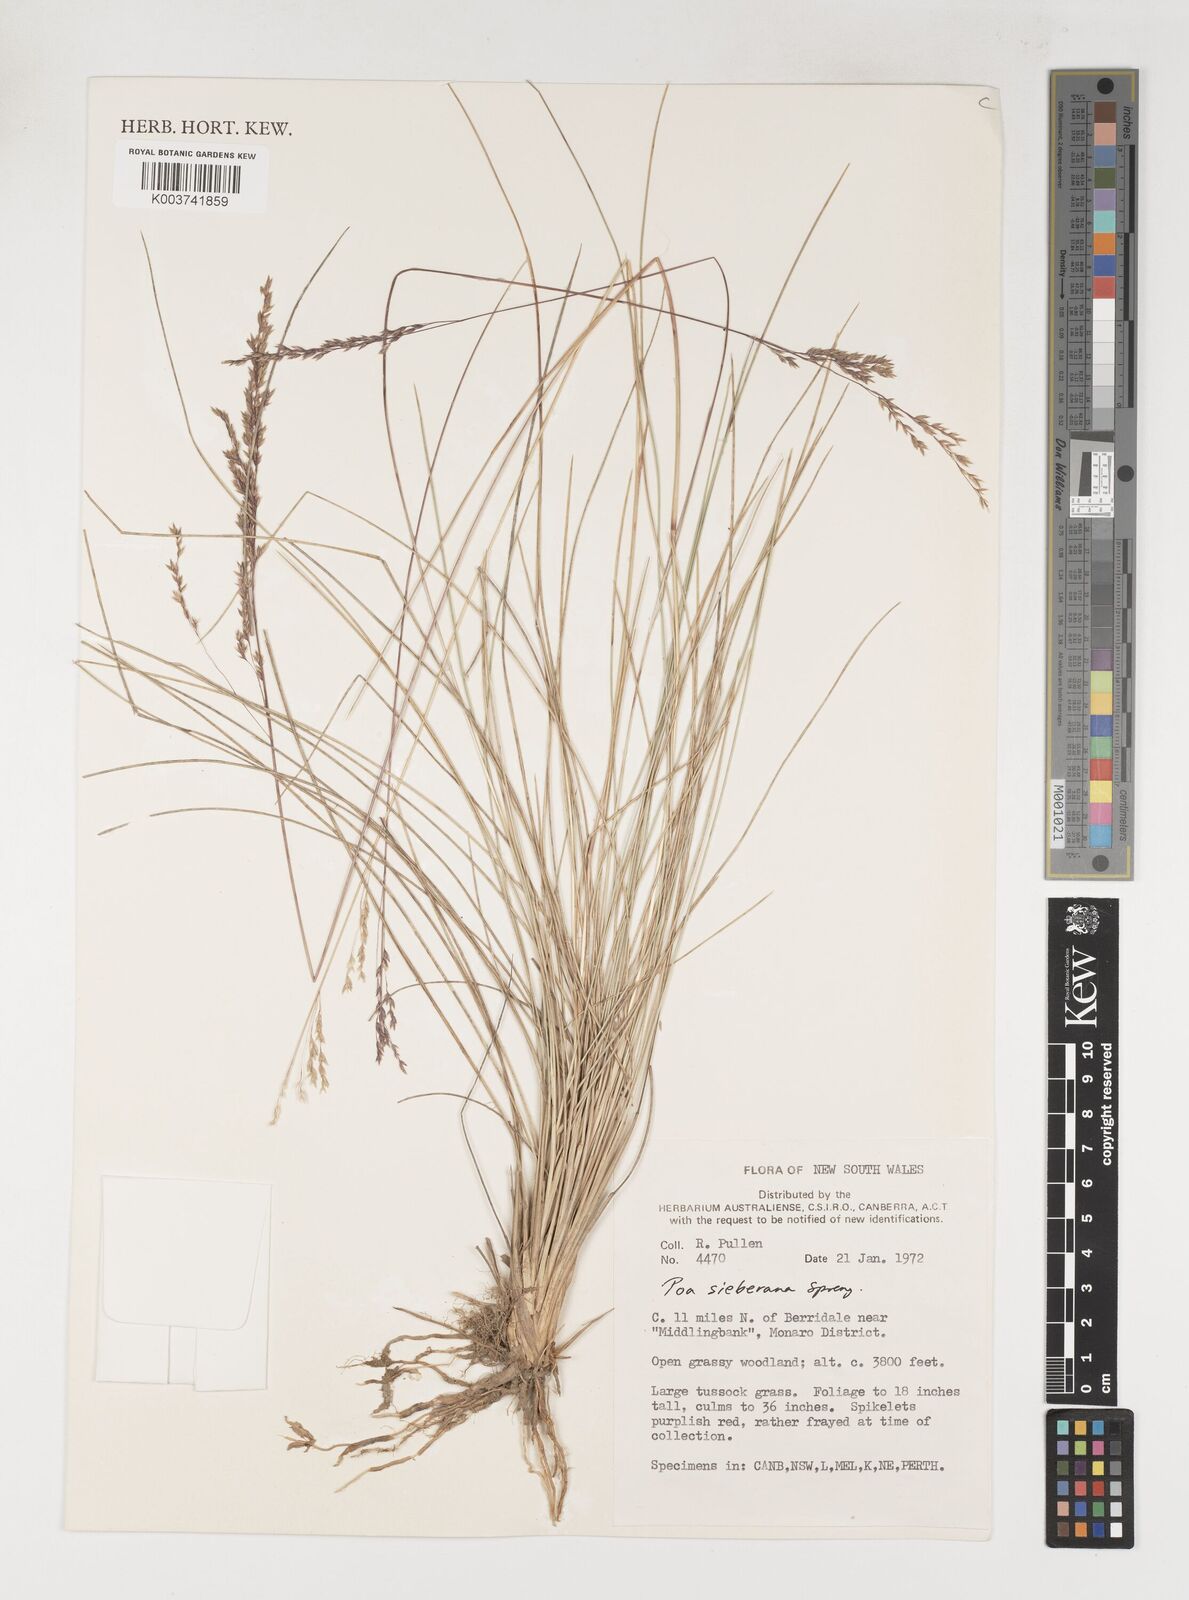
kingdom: Plantae
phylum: Tracheophyta
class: Liliopsida
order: Poales
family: Poaceae
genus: Poa
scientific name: Poa sieberiana
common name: Tussock poa
